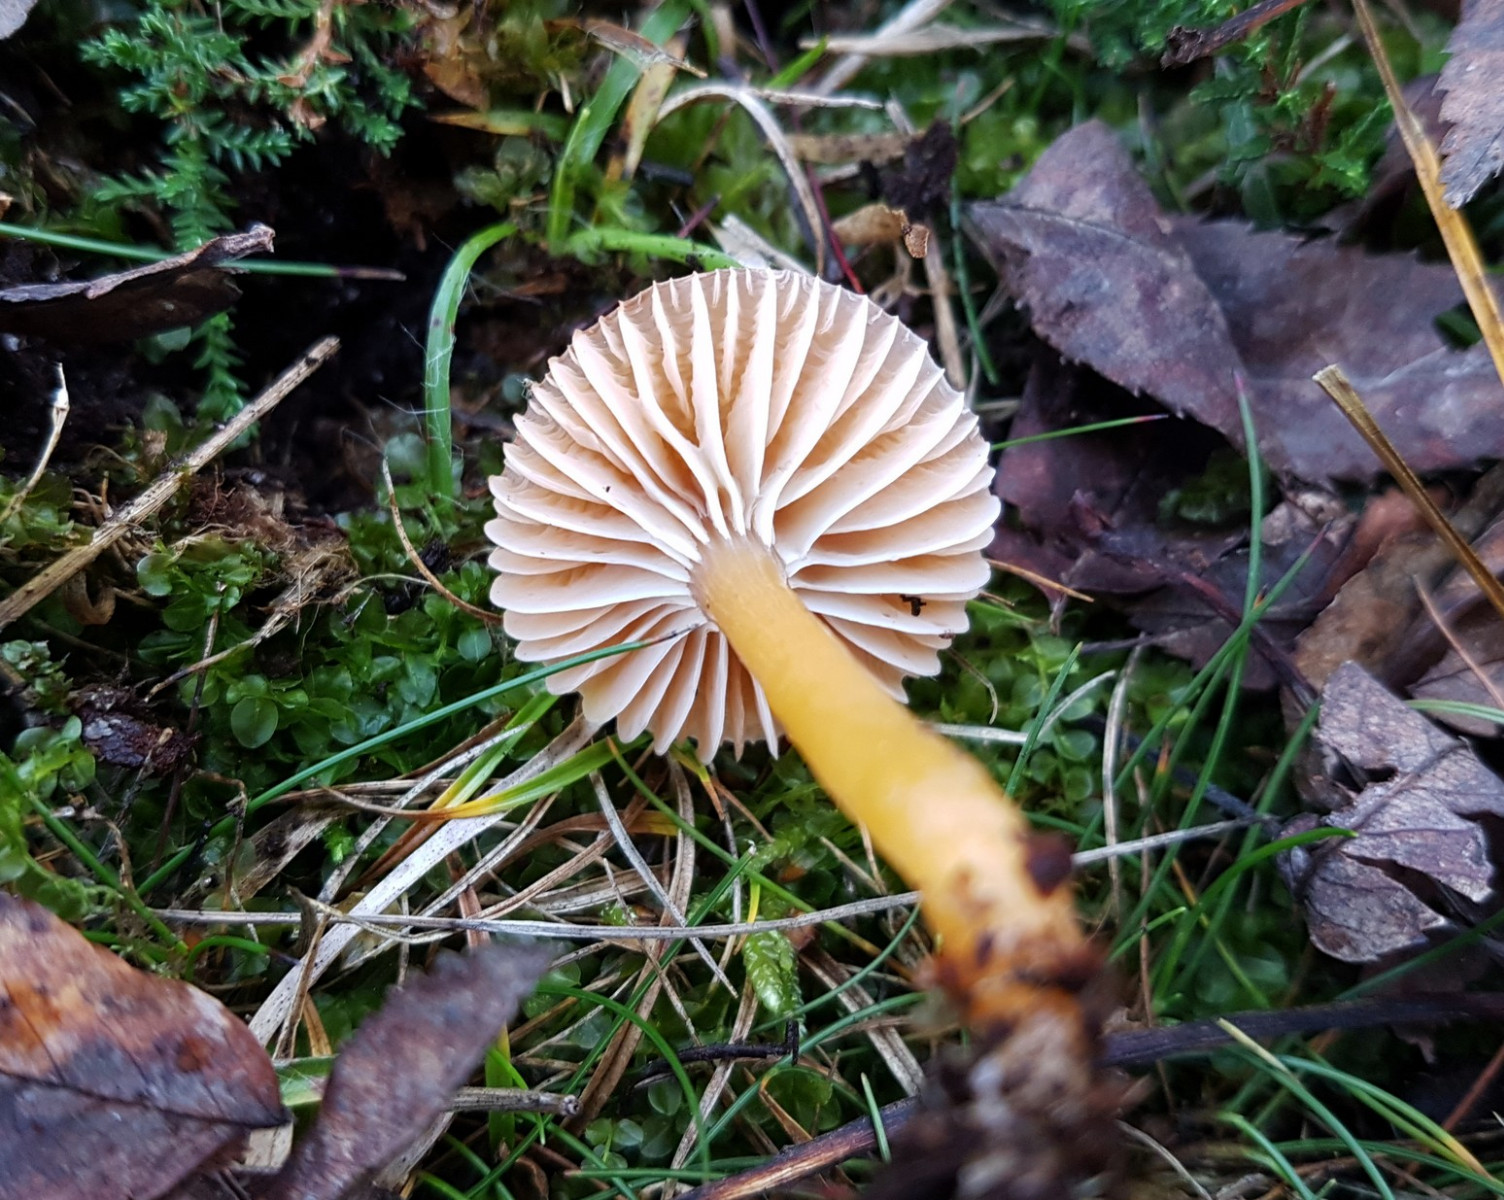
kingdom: Fungi
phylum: Basidiomycota
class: Agaricomycetes
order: Agaricales
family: Hygrophoraceae
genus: Gliophorus
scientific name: Gliophorus laetus
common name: brusk-vokshat
